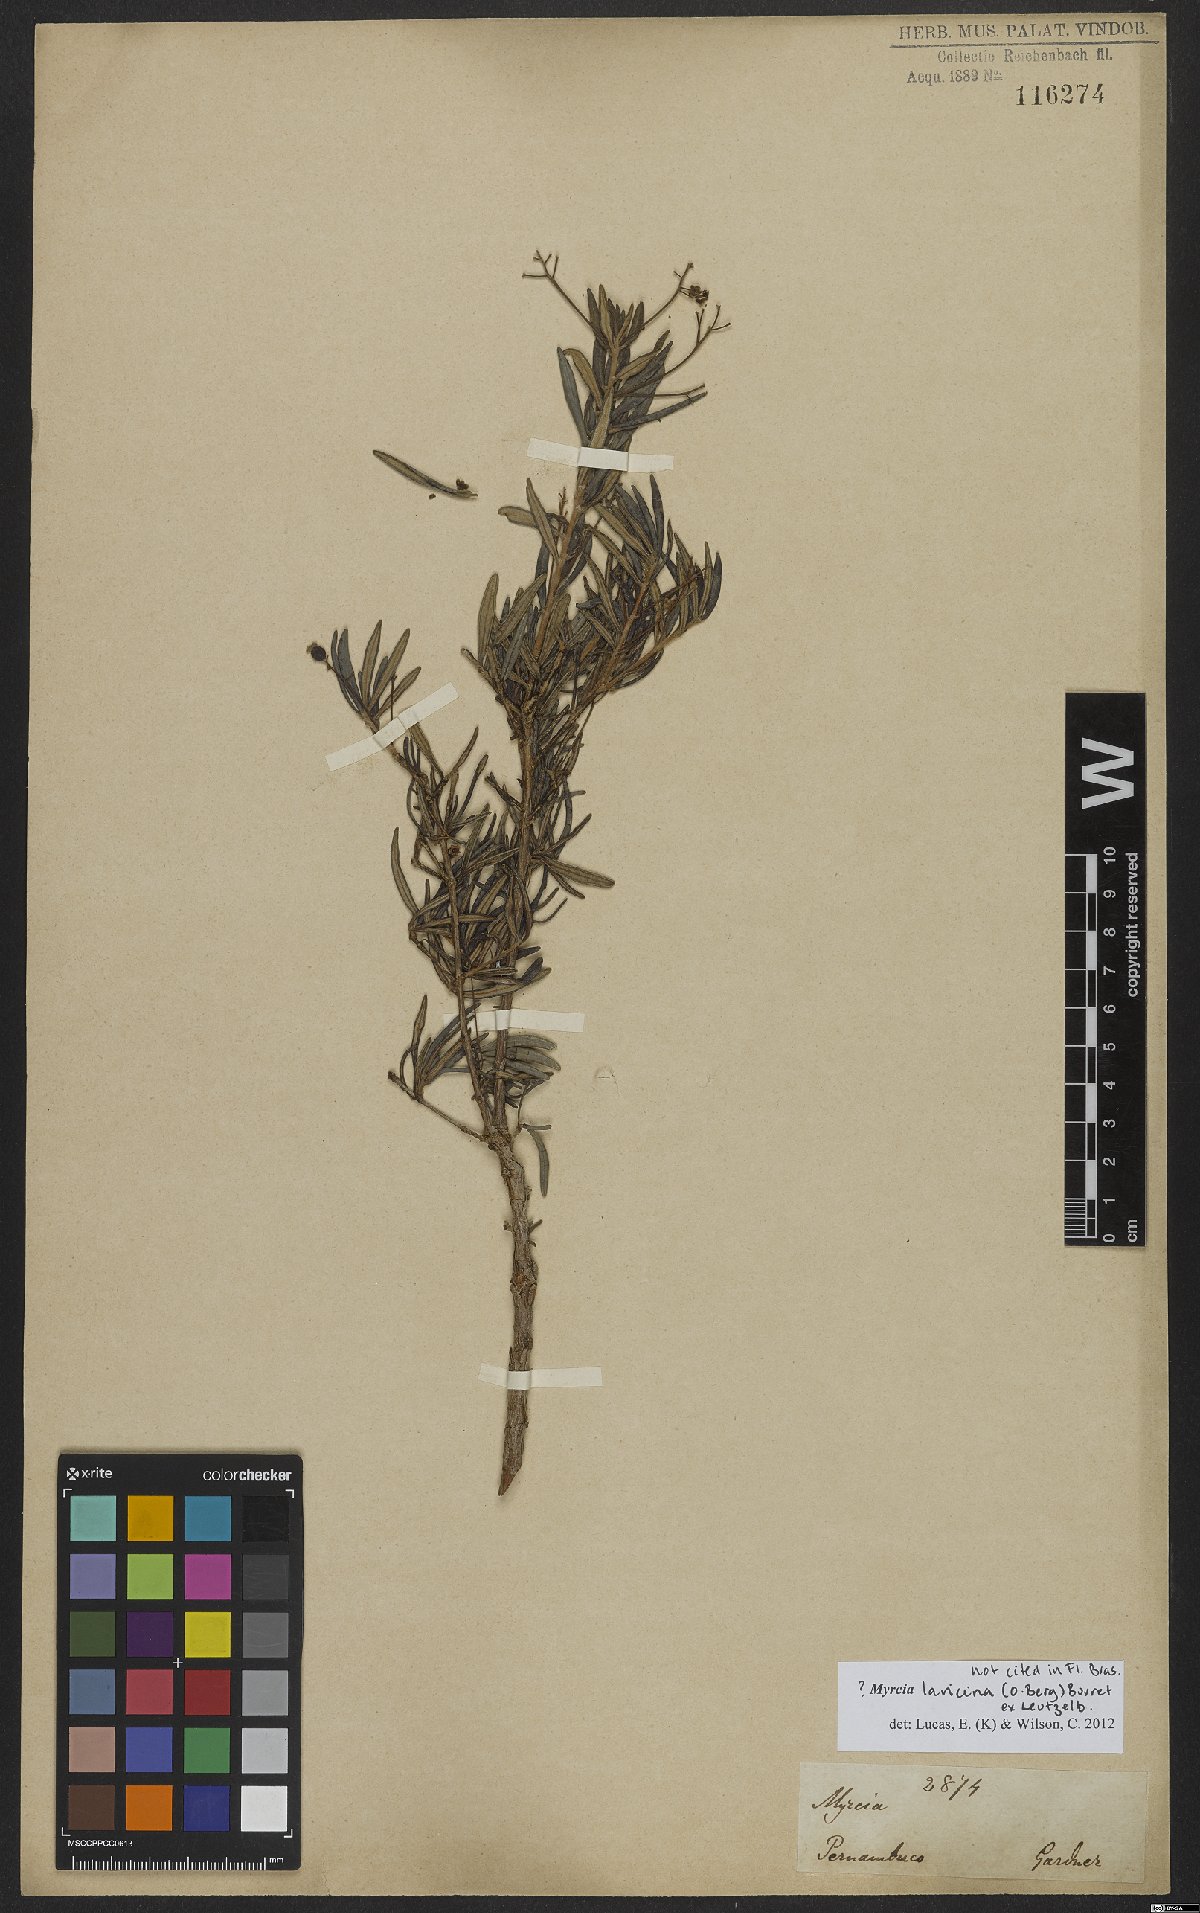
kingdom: Plantae
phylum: Tracheophyta
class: Magnoliopsida
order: Myrtales
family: Myrtaceae
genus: Myrcia
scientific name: Myrcia laricina
